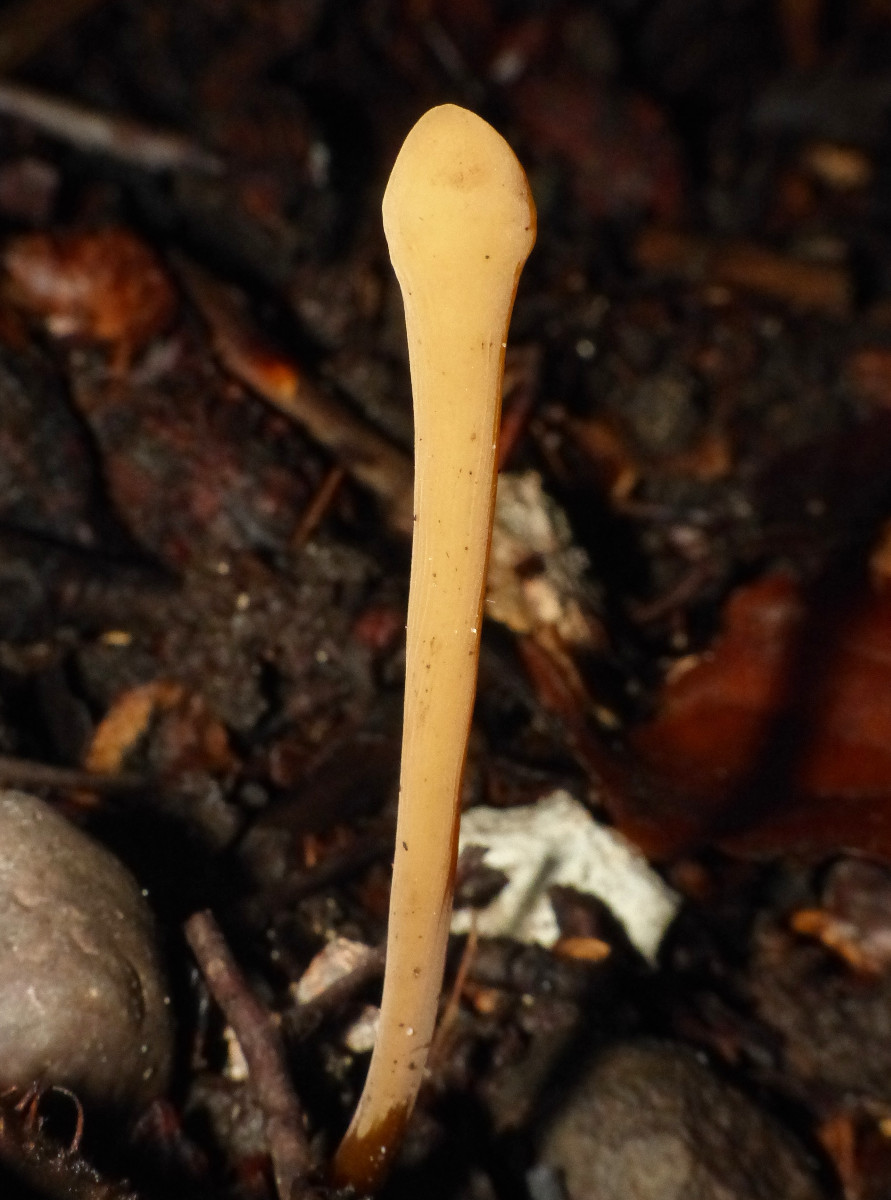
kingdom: Fungi
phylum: Basidiomycota
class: Agaricomycetes
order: Agaricales
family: Typhulaceae
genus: Typhula
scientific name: Typhula fistulosa
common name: pibet rørkølle
